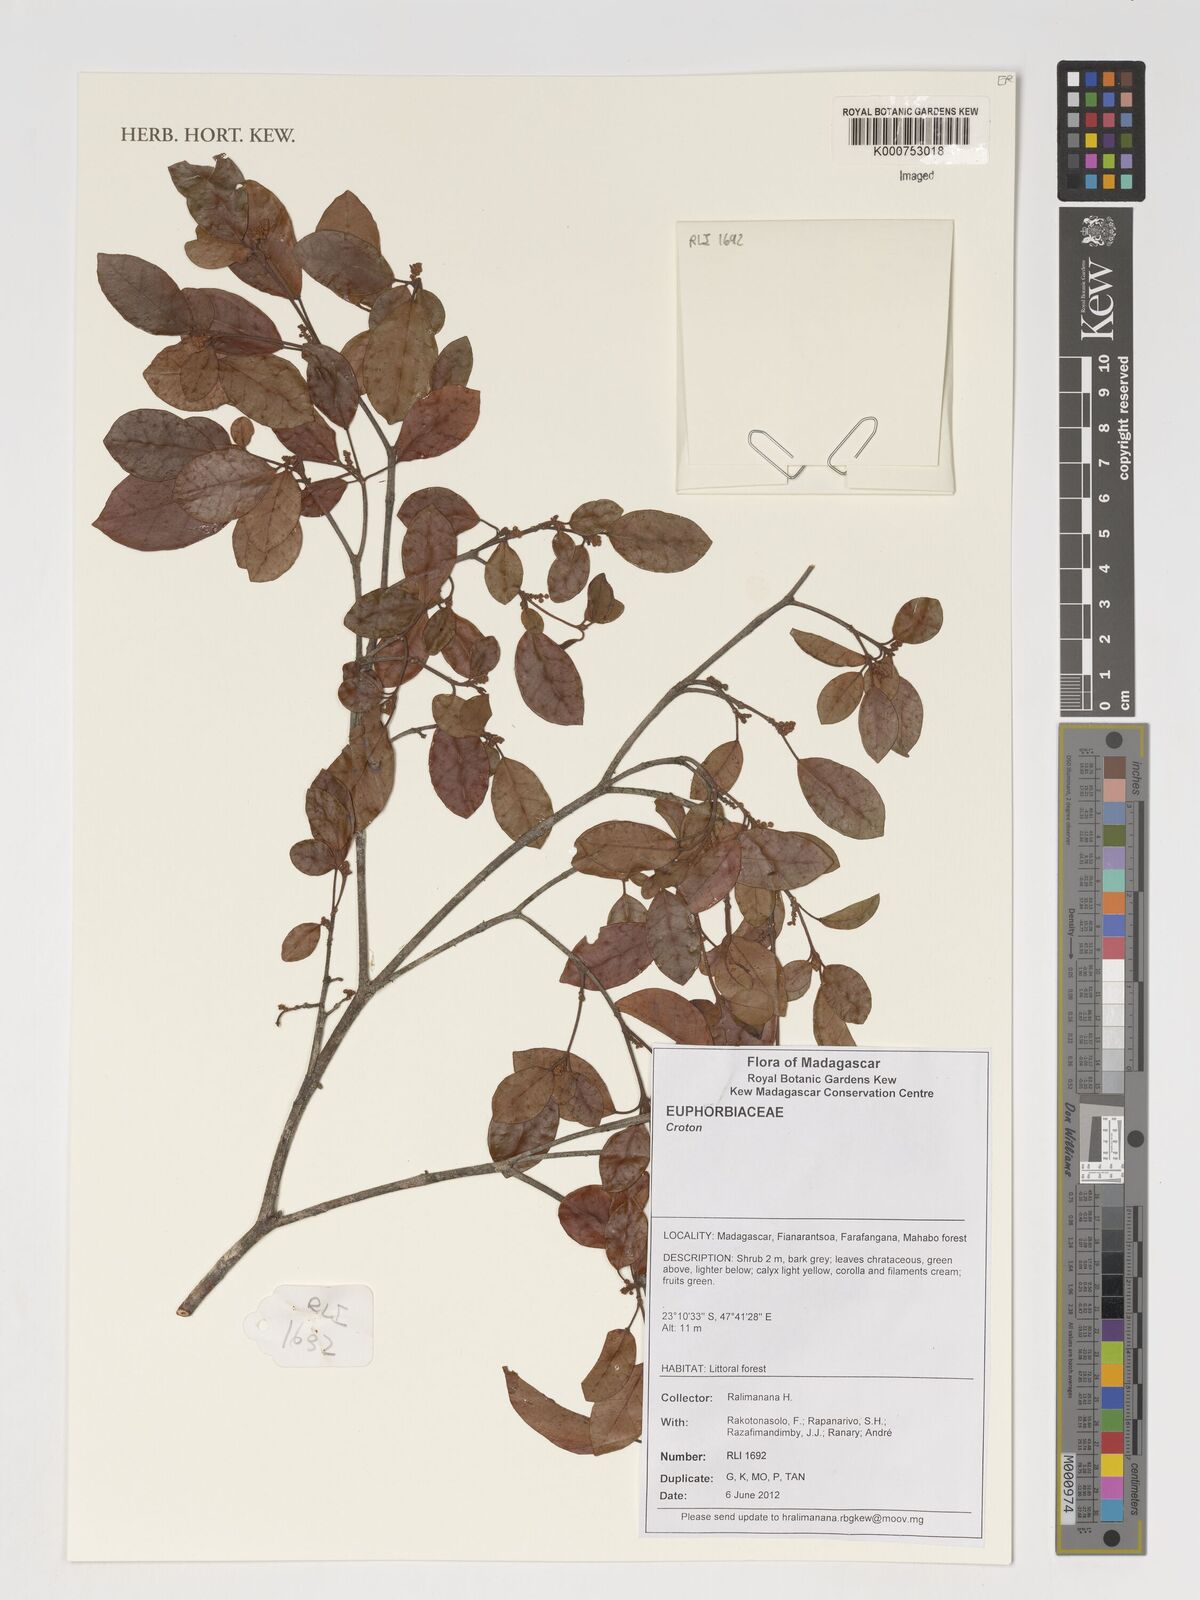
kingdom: Plantae
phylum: Tracheophyta
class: Magnoliopsida
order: Malpighiales
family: Euphorbiaceae
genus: Croton
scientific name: Croton
